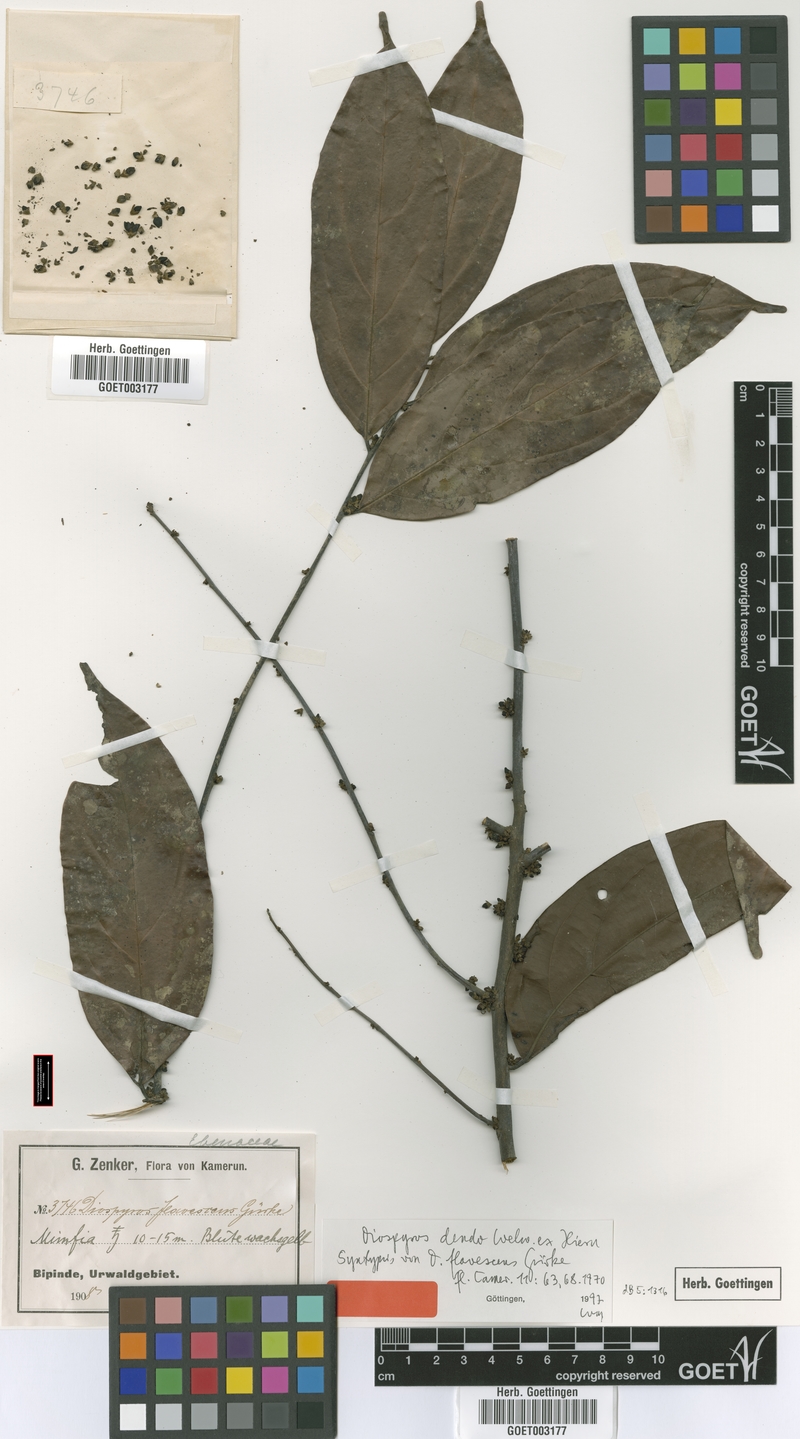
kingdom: Plantae
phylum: Tracheophyta
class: Magnoliopsida
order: Ericales
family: Ebenaceae
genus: Diospyros
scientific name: Diospyros dendo
